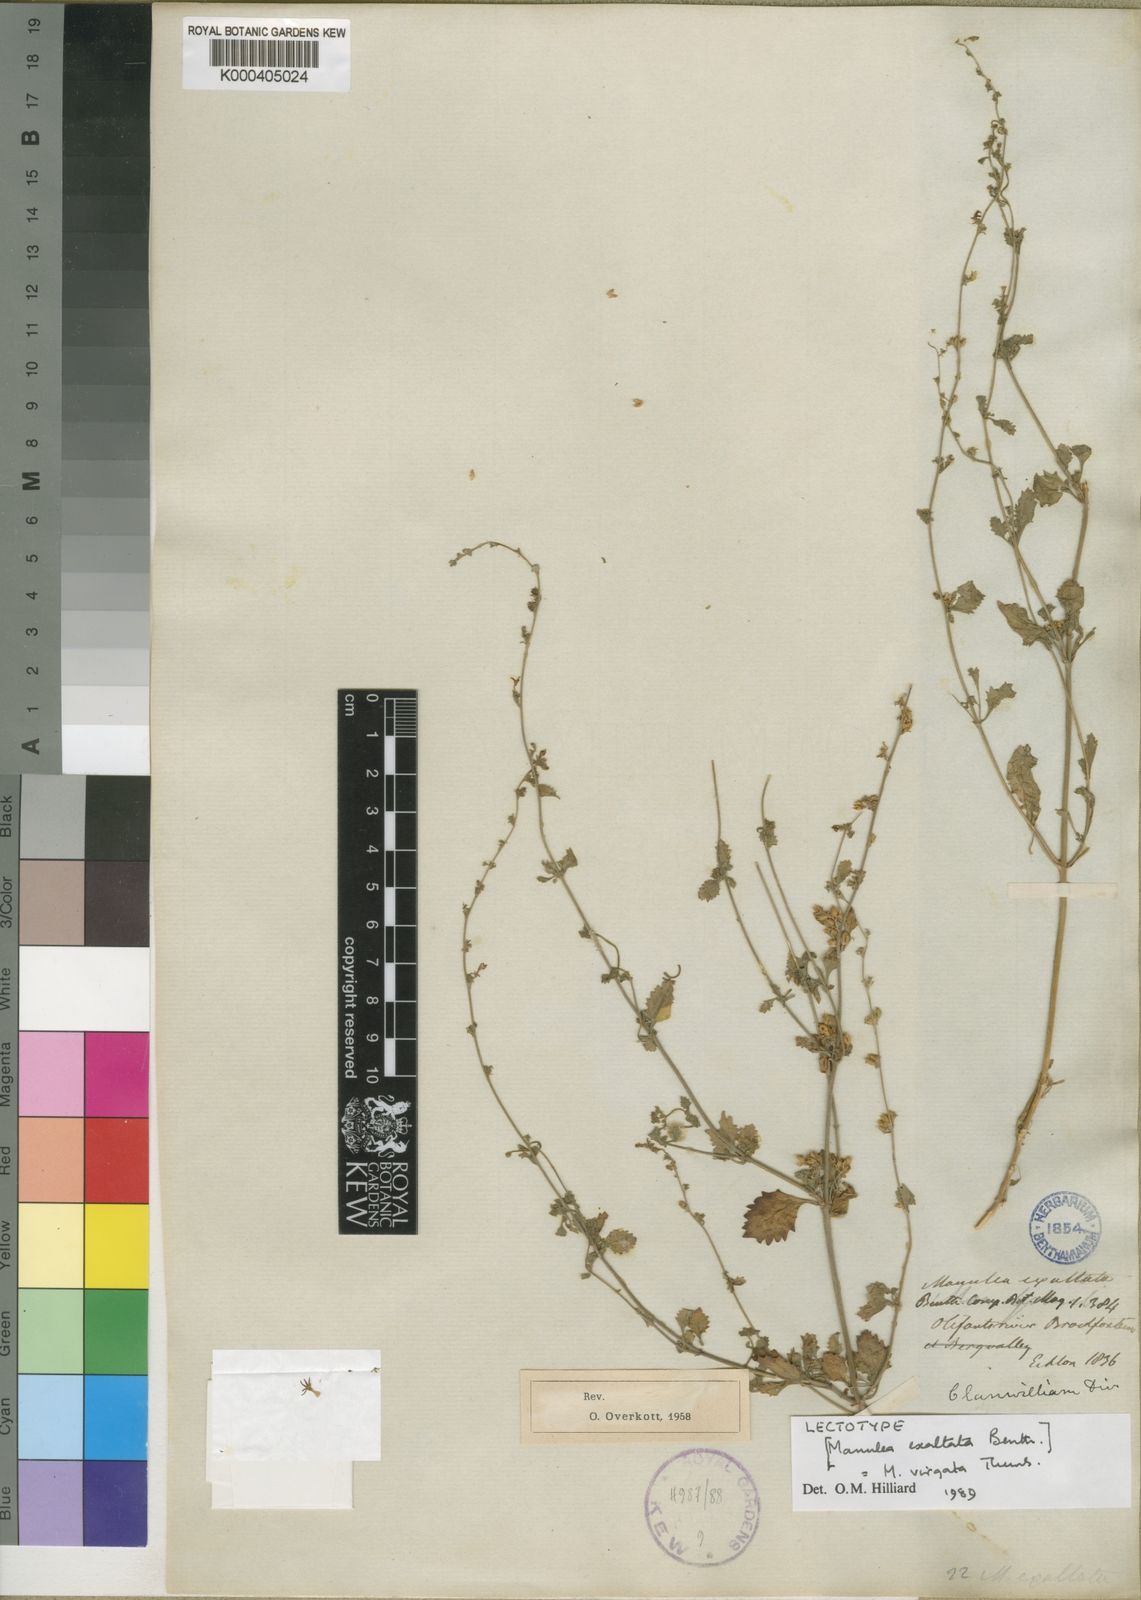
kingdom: Plantae
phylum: Tracheophyta
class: Magnoliopsida
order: Lamiales
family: Scrophulariaceae
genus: Manulea
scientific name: Manulea virgata
